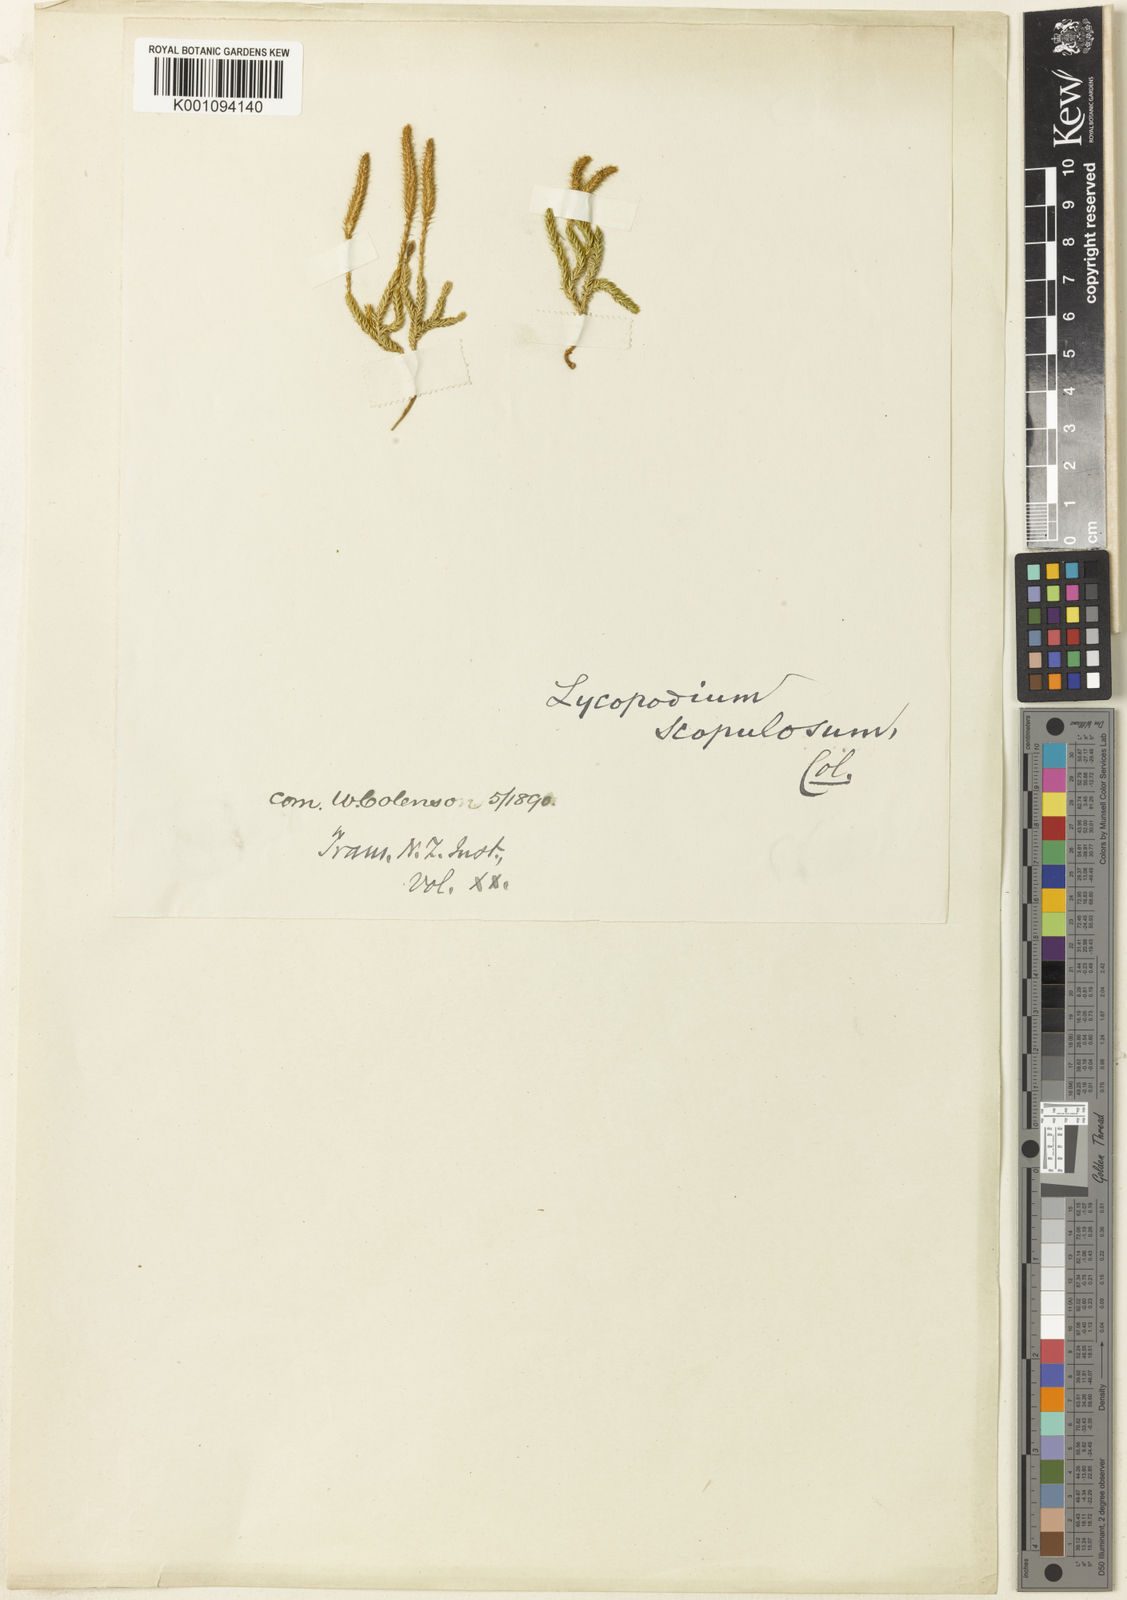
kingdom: Plantae
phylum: Tracheophyta
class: Lycopodiopsida
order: Lycopodiales
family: Lycopodiaceae
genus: Austrolycopodium
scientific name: Austrolycopodium fastigiatum
